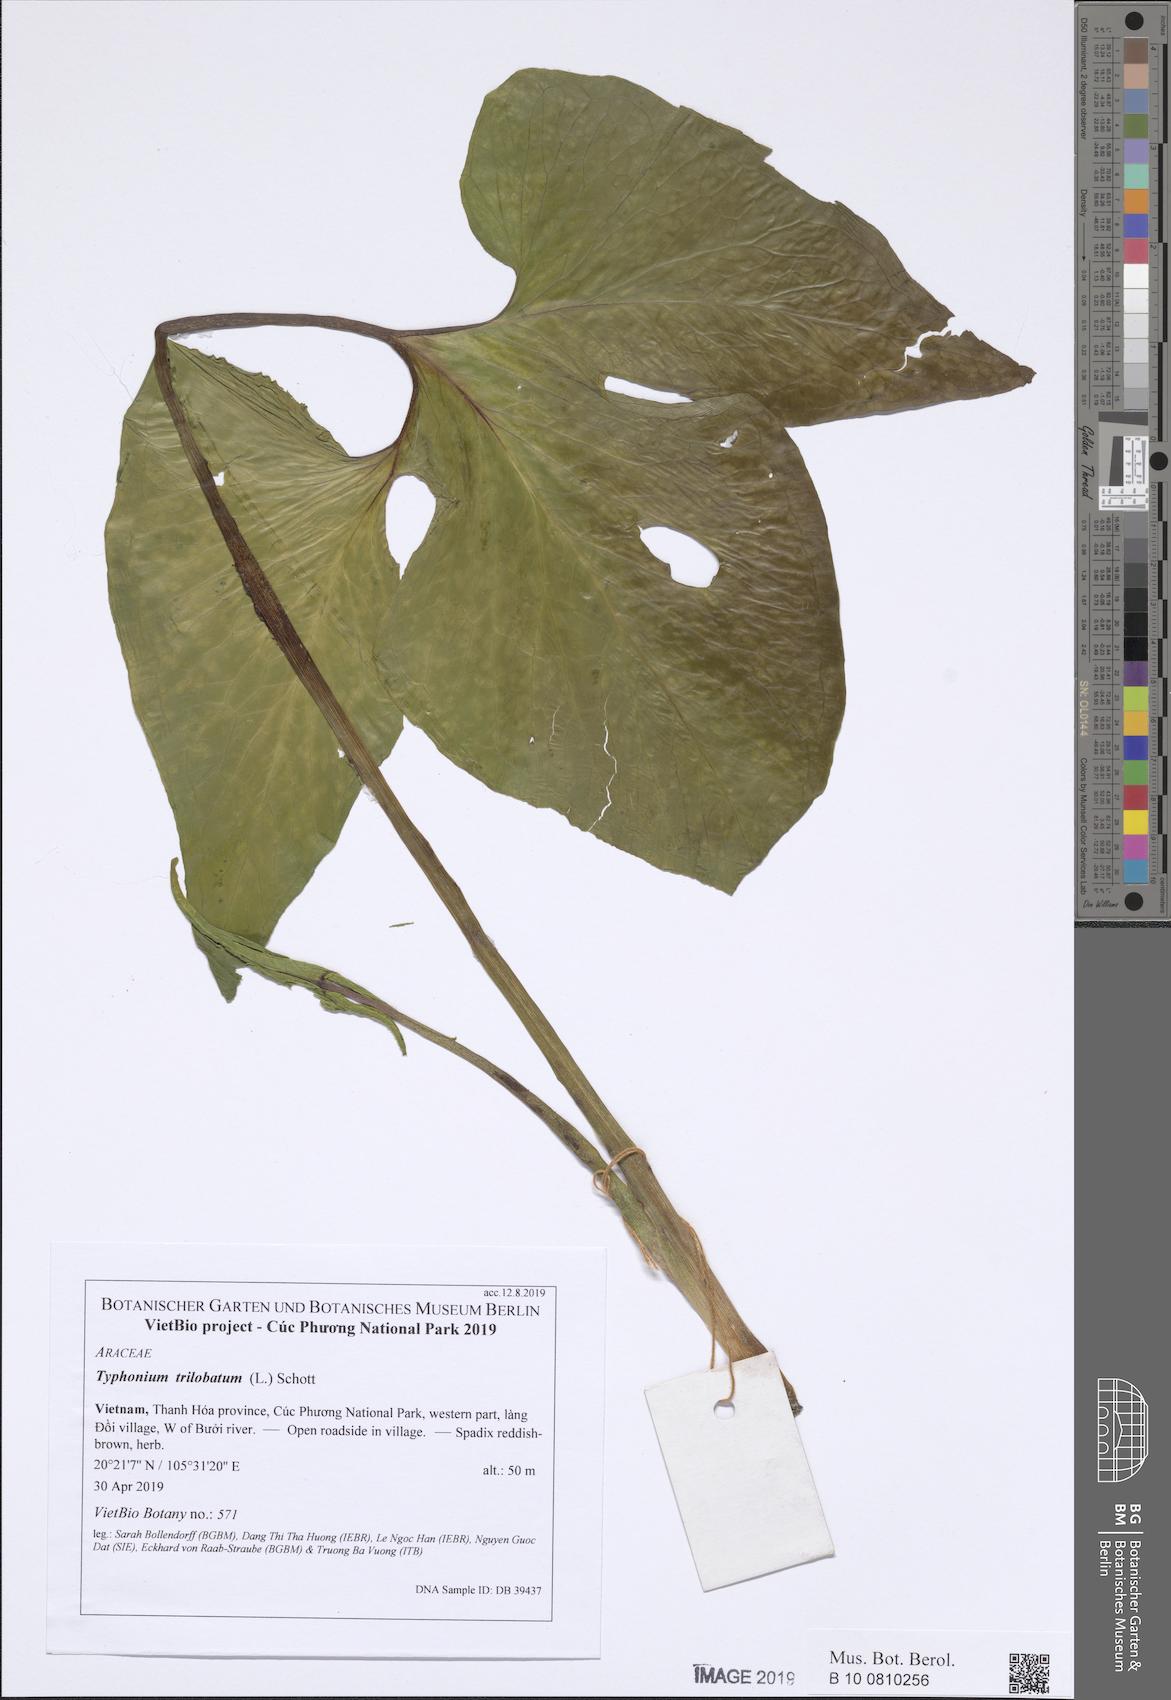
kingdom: Plantae
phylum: Tracheophyta
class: Liliopsida
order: Alismatales
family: Araceae
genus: Typhonium
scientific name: Typhonium trilobatum
